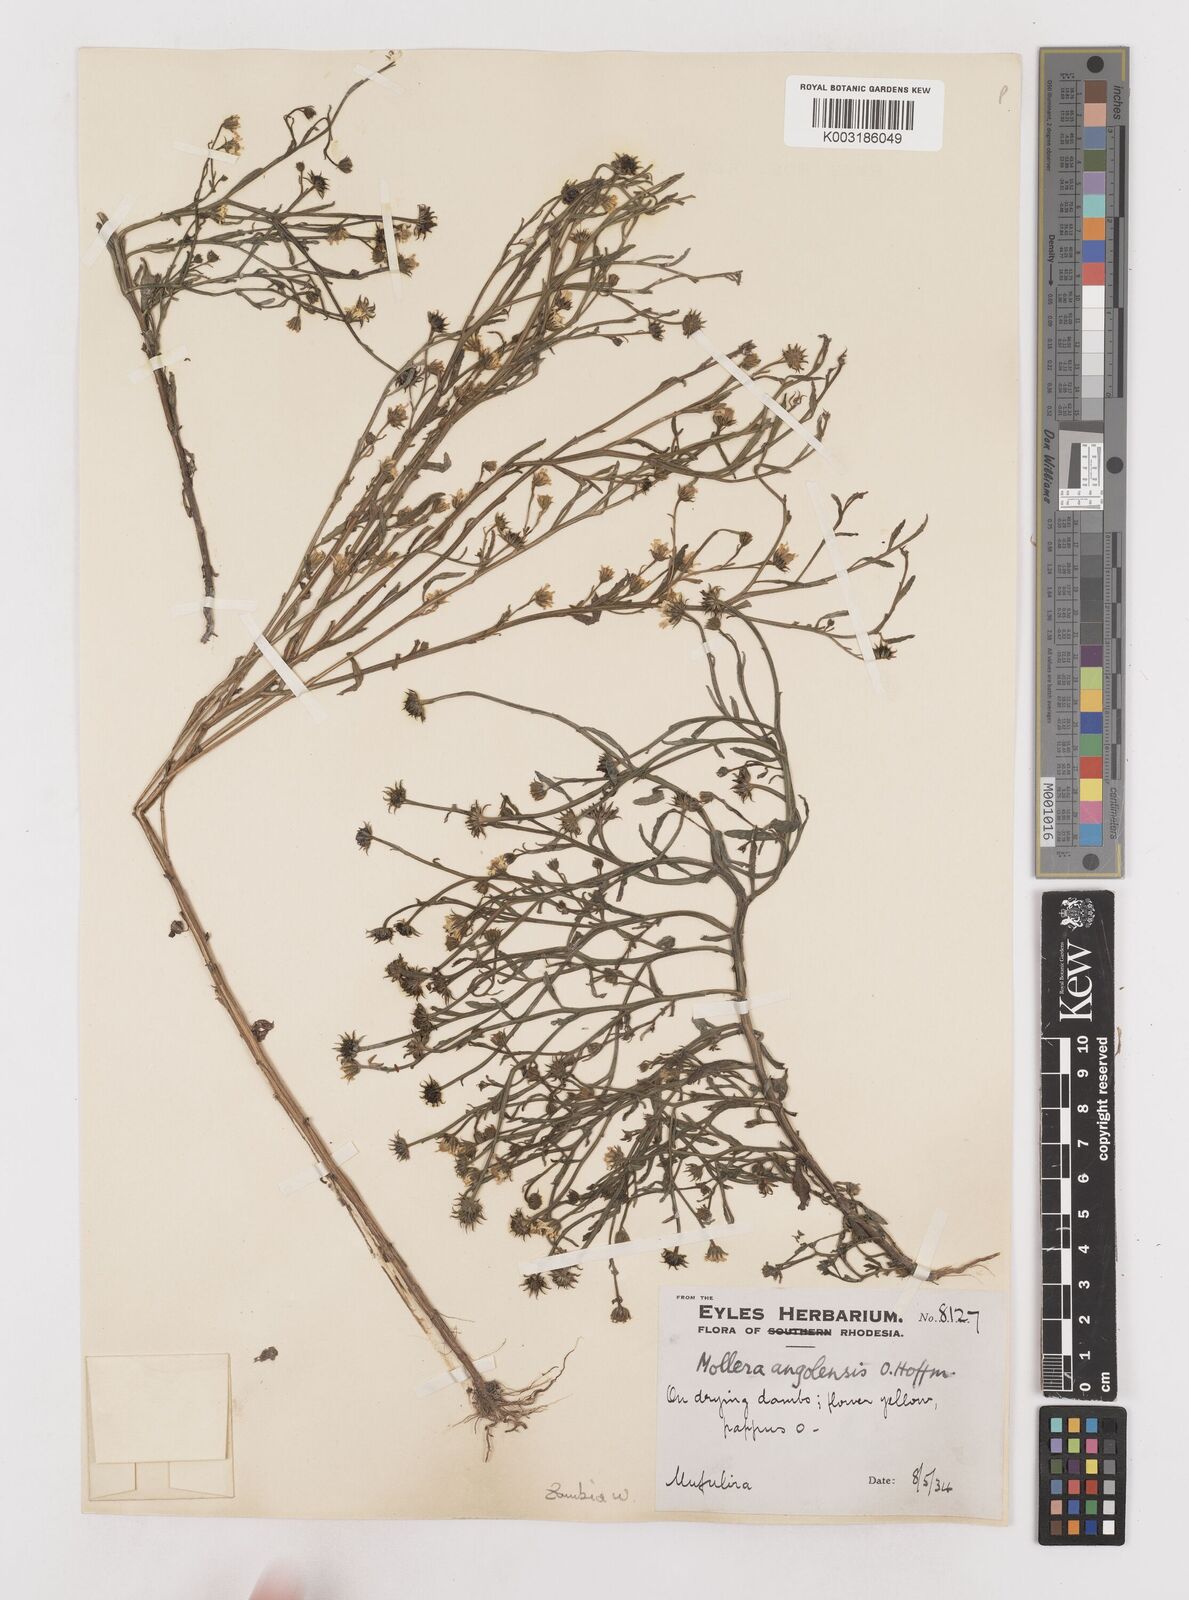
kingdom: Plantae
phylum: Tracheophyta
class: Magnoliopsida
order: Asterales
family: Asteraceae
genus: Calostephane
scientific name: Calostephane angolensis
